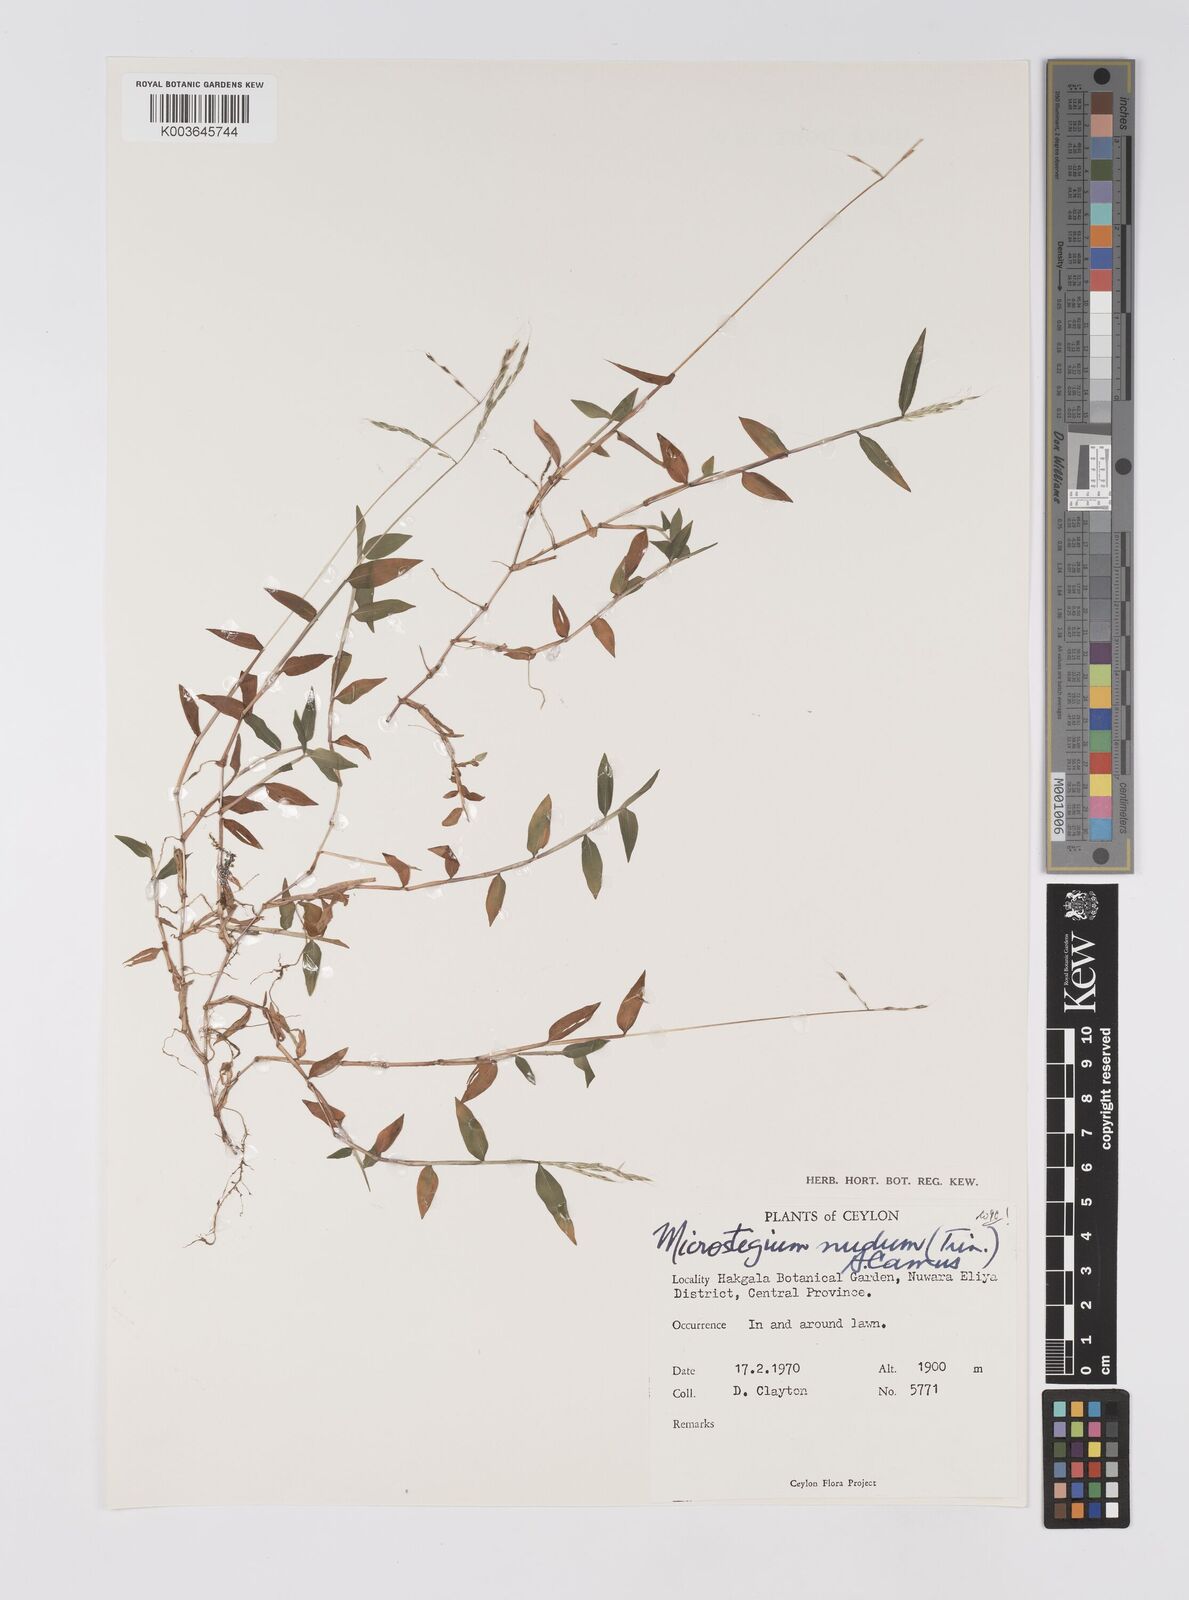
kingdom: Plantae
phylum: Tracheophyta
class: Liliopsida
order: Poales
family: Poaceae
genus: Microstegium
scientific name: Microstegium nudum
